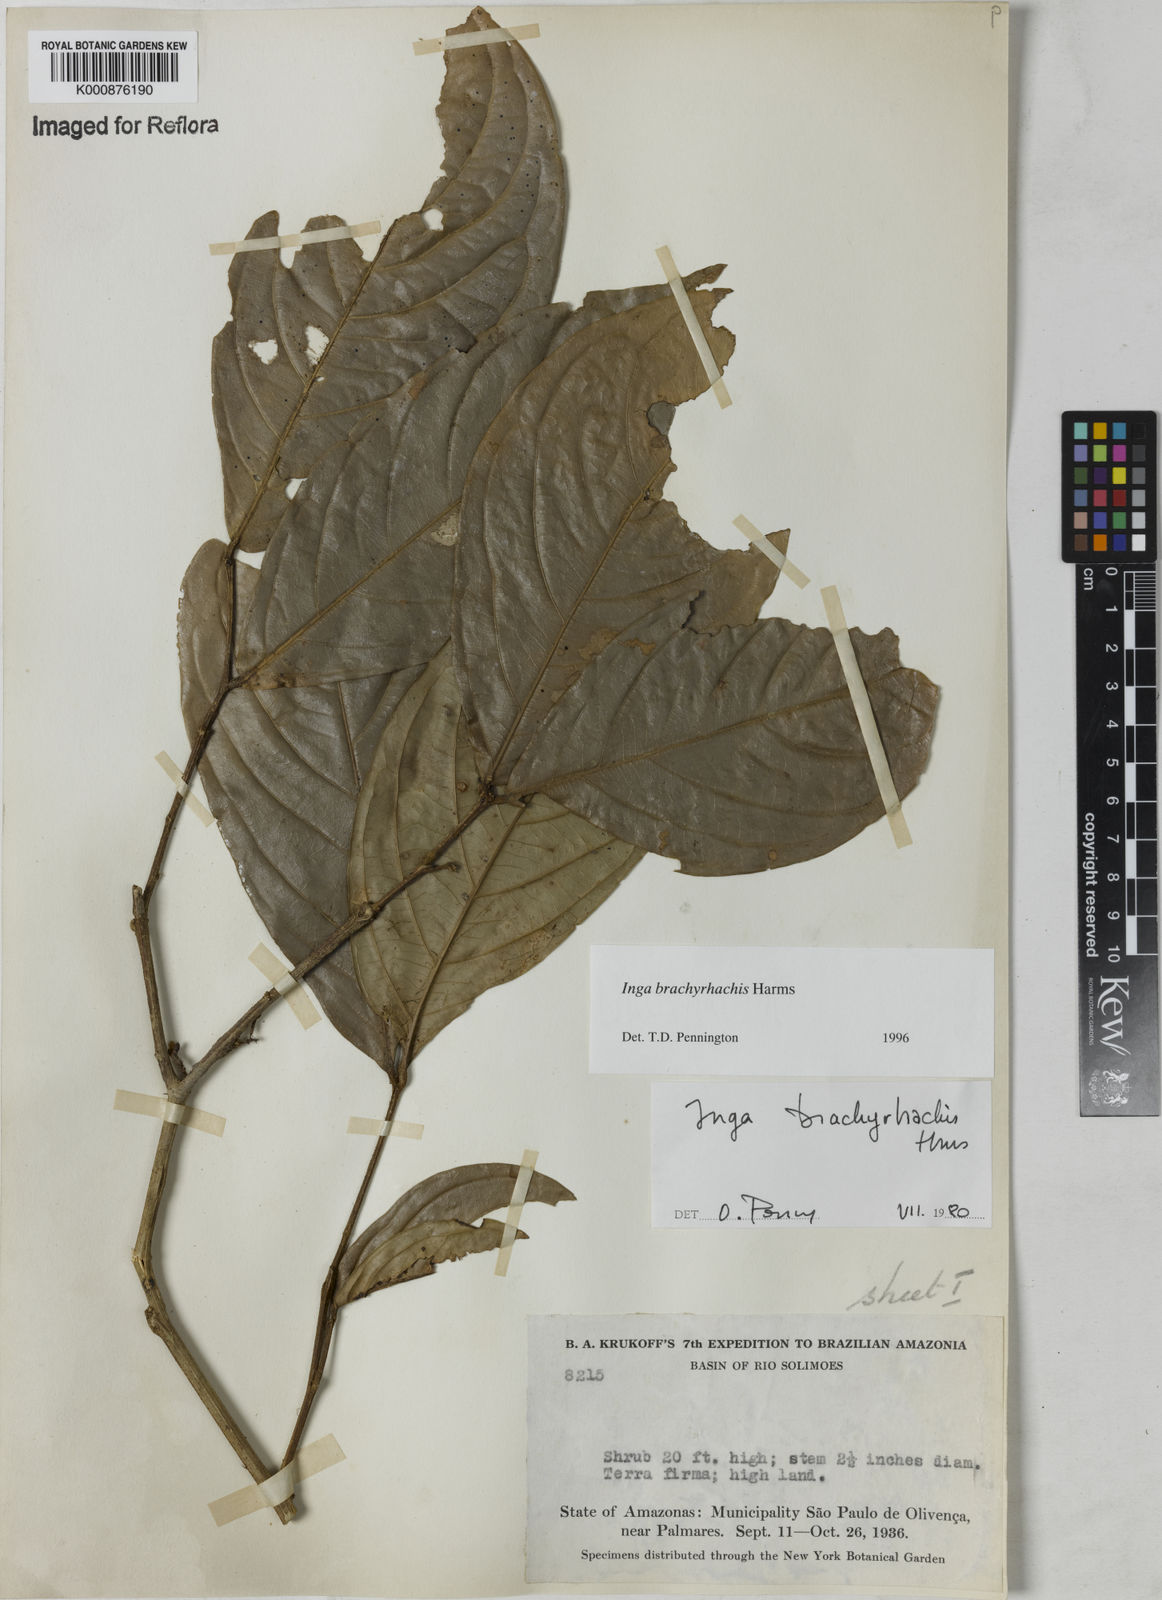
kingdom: Plantae
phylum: Tracheophyta
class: Magnoliopsida
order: Fabales
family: Fabaceae
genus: Inga
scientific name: Inga brachyrhachis
